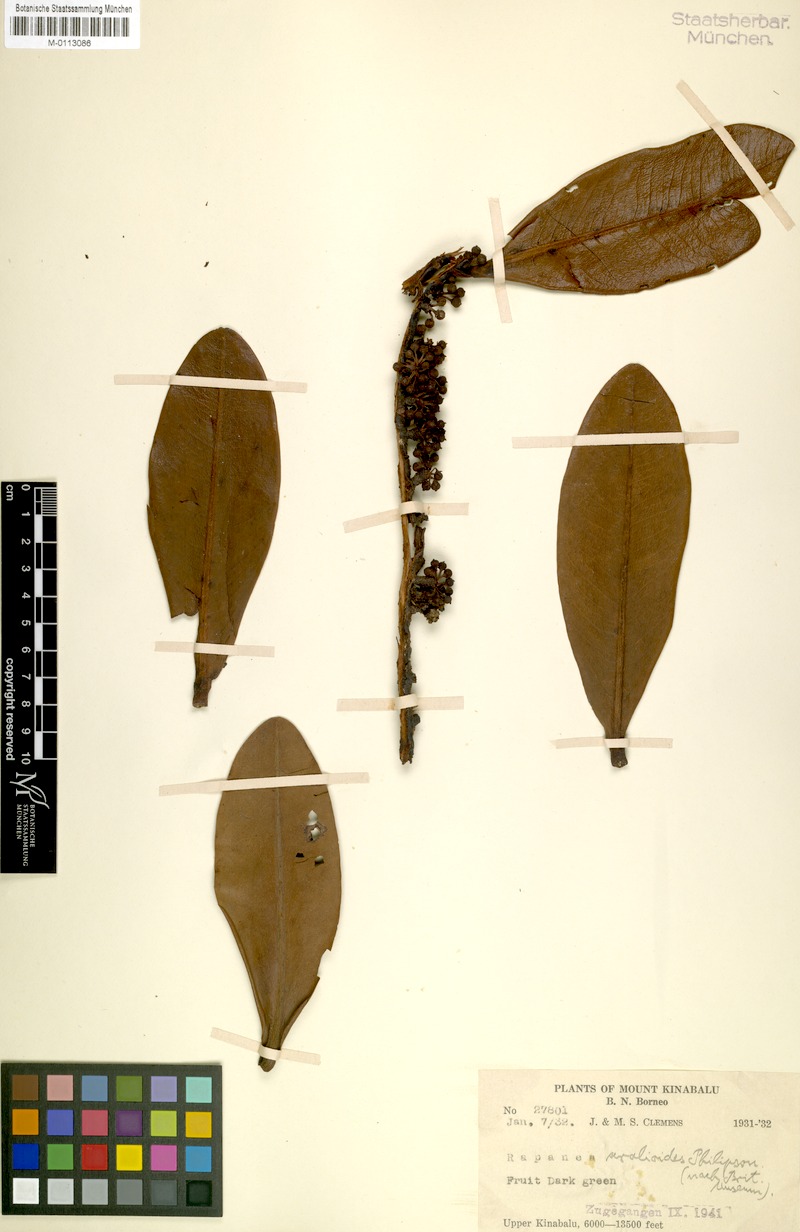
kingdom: Plantae
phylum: Tracheophyta
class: Magnoliopsida
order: Ericales
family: Primulaceae
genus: Myrsine
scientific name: Myrsine aralioides
